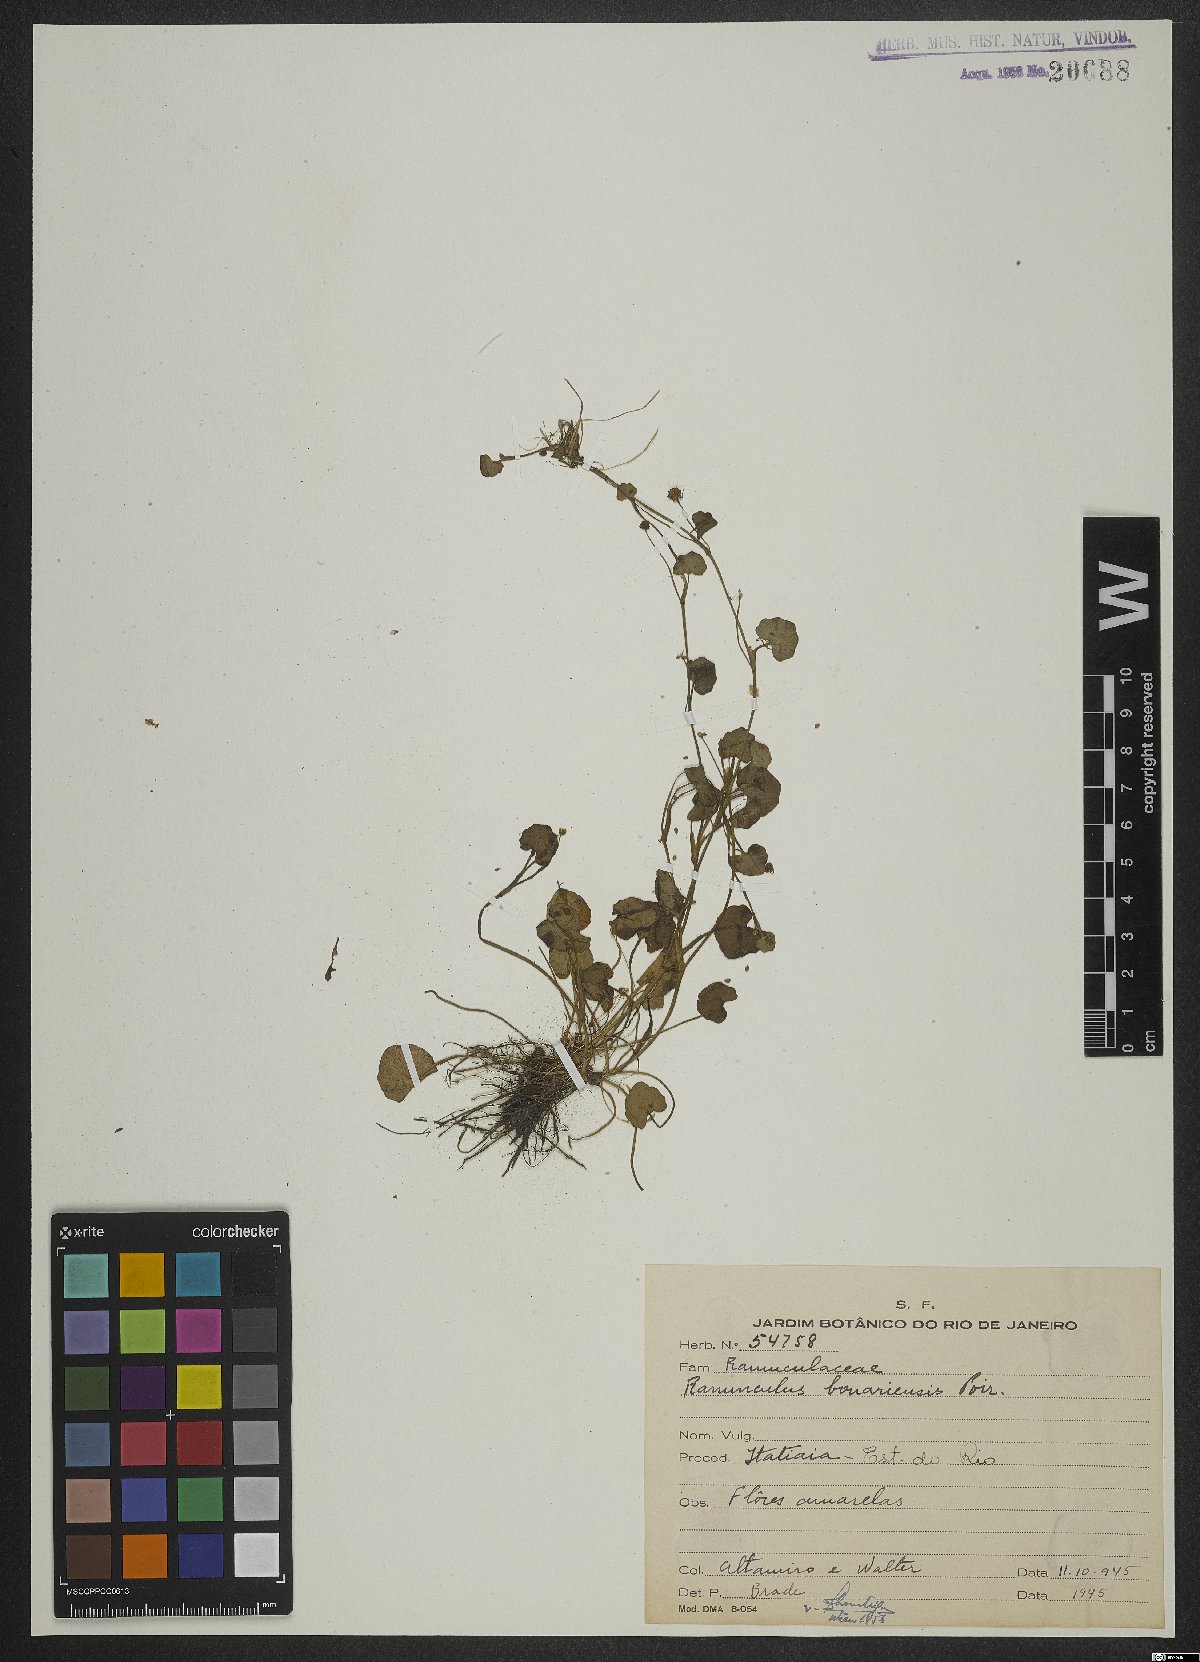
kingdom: Plantae
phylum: Tracheophyta
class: Magnoliopsida
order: Ranunculales
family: Ranunculaceae
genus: Ranunculus
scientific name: Ranunculus bonariensis
